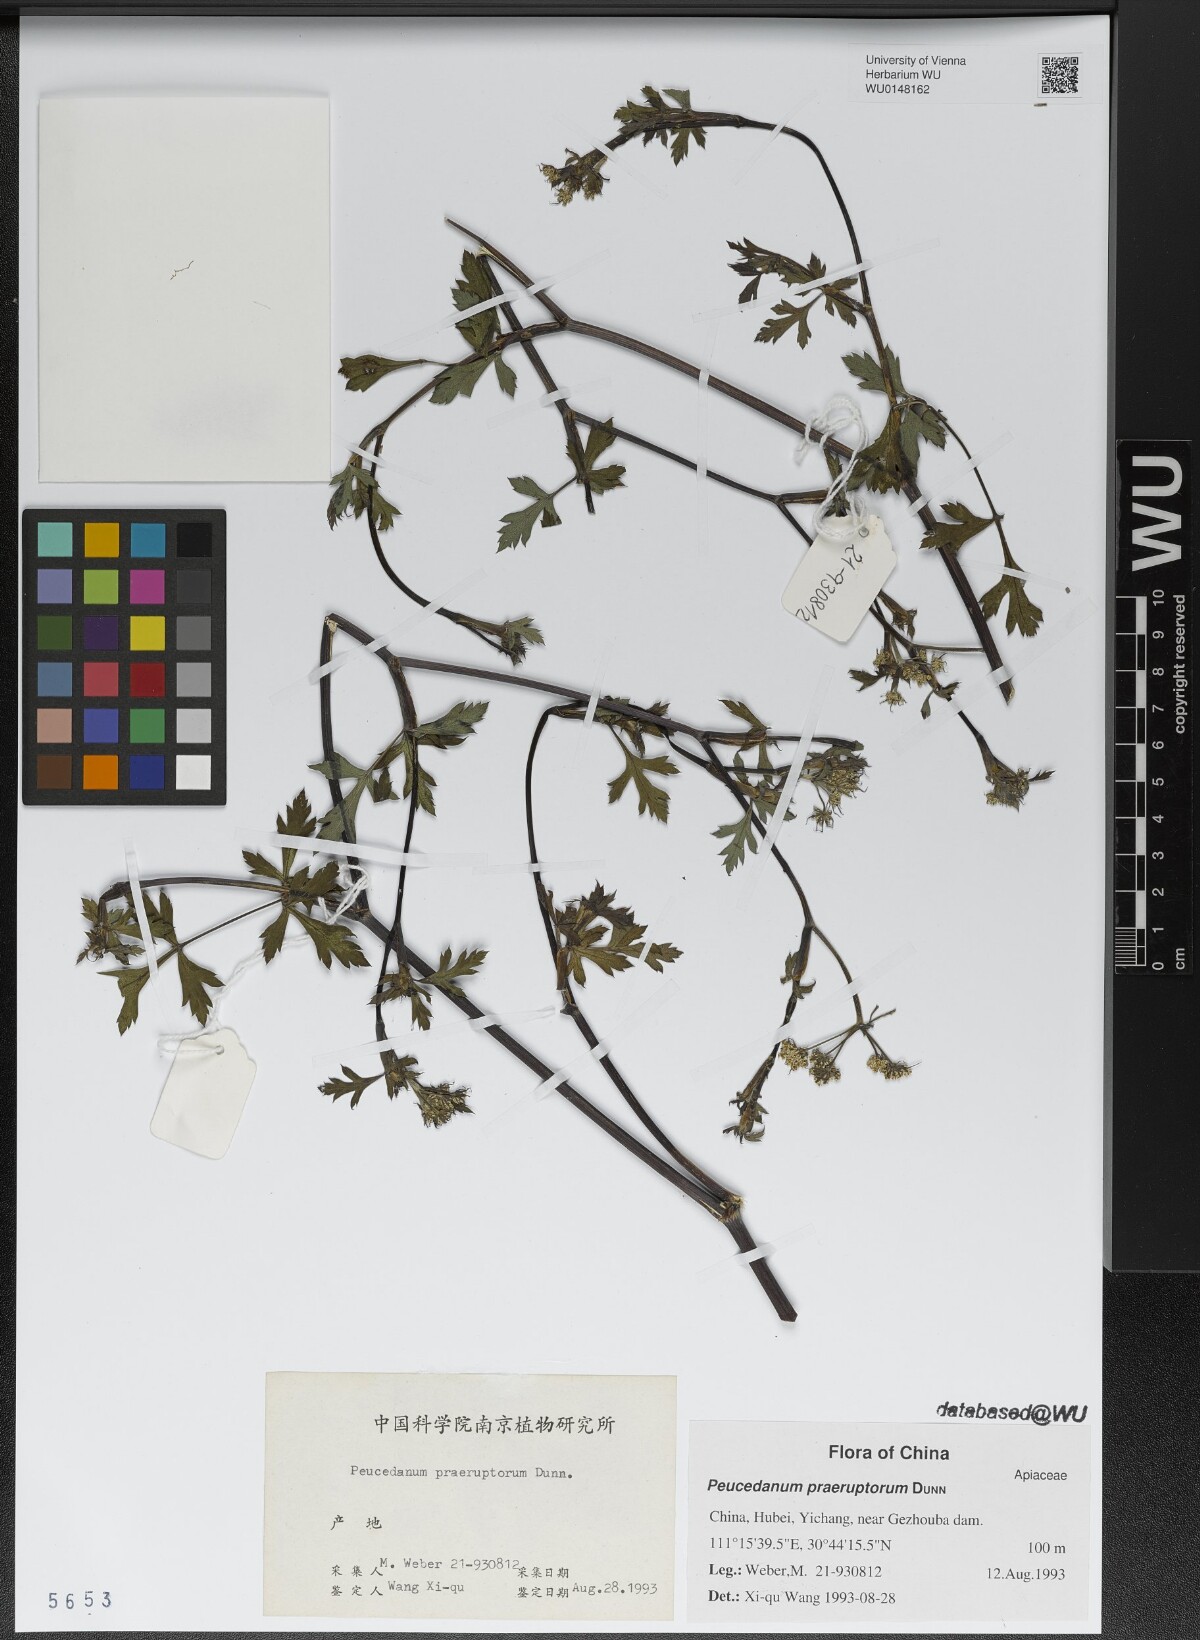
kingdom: Plantae
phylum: Tracheophyta
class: Magnoliopsida
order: Apiales
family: Apiaceae
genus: Kitagawia
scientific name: Kitagawia praeruptora
